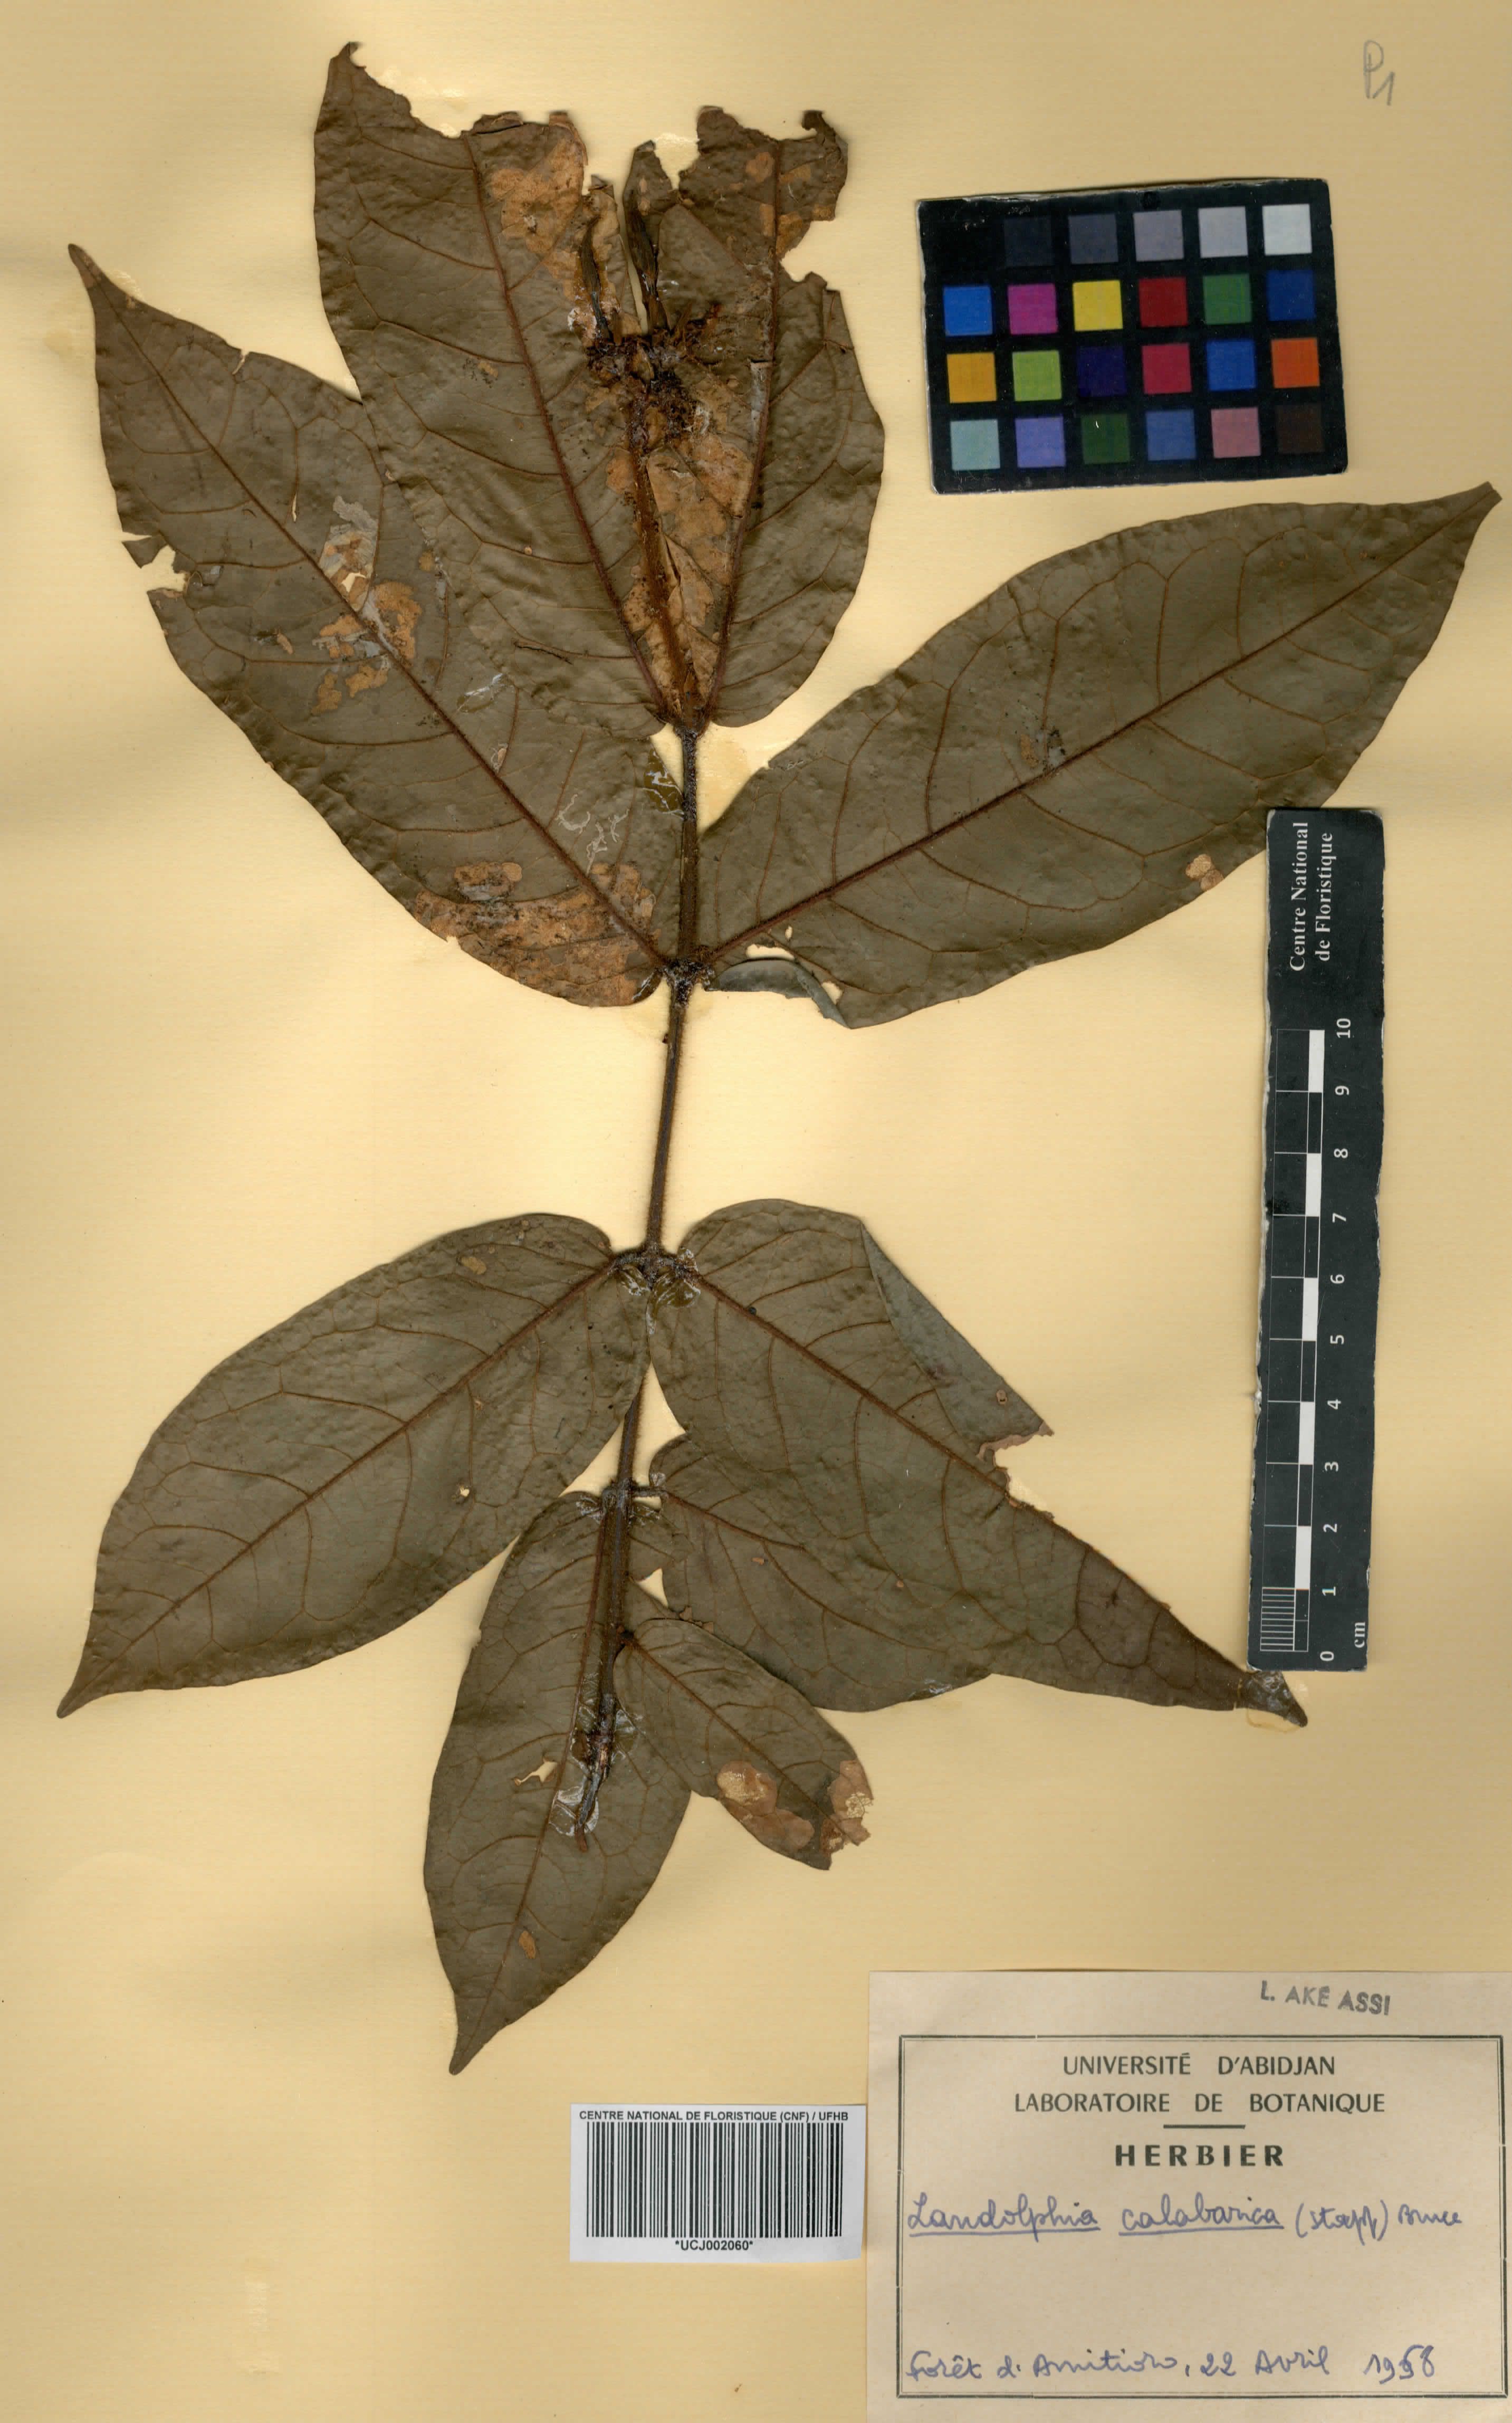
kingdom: Plantae
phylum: Tracheophyta
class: Magnoliopsida
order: Gentianales
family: Apocynaceae
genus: Landolphia
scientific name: Landolphia calabarica
